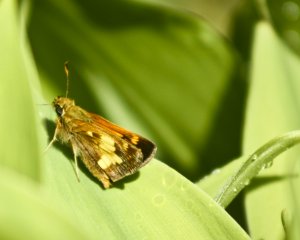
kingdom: Animalia
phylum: Arthropoda
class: Insecta
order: Lepidoptera
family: Hesperiidae
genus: Lon
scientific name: Lon hobomok
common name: Hobomok Skipper
